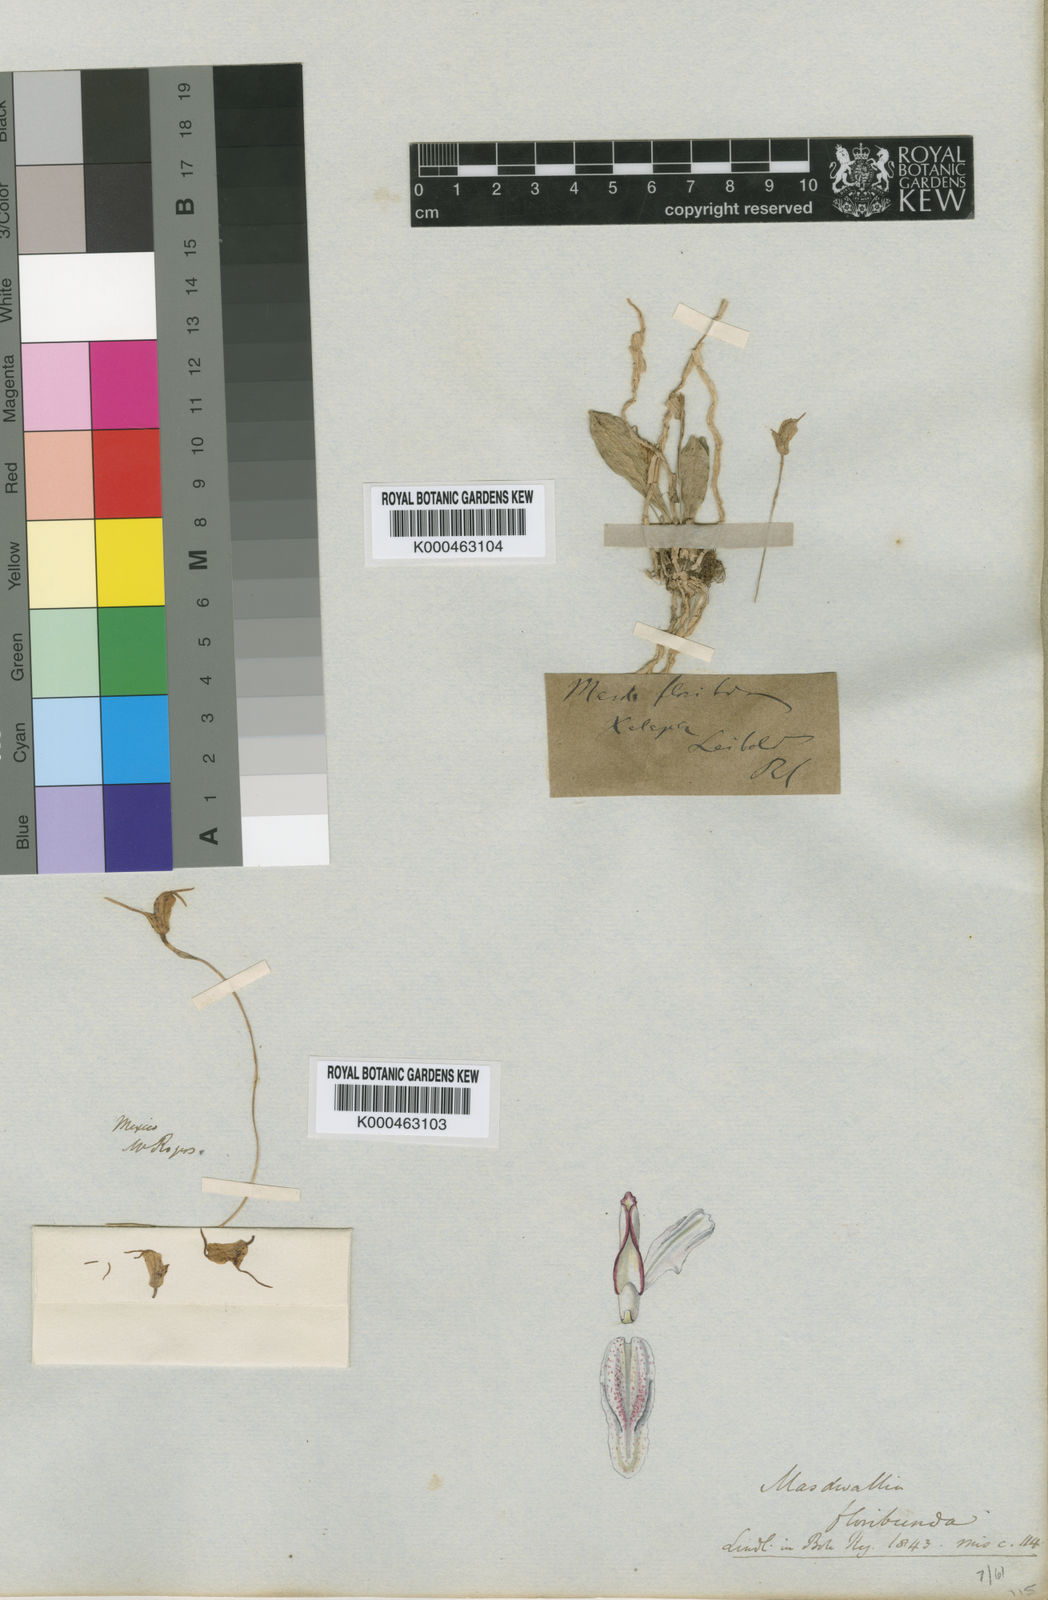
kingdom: Plantae
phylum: Tracheophyta
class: Liliopsida
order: Asparagales
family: Orchidaceae
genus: Masdevallia
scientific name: Masdevallia floribunda
